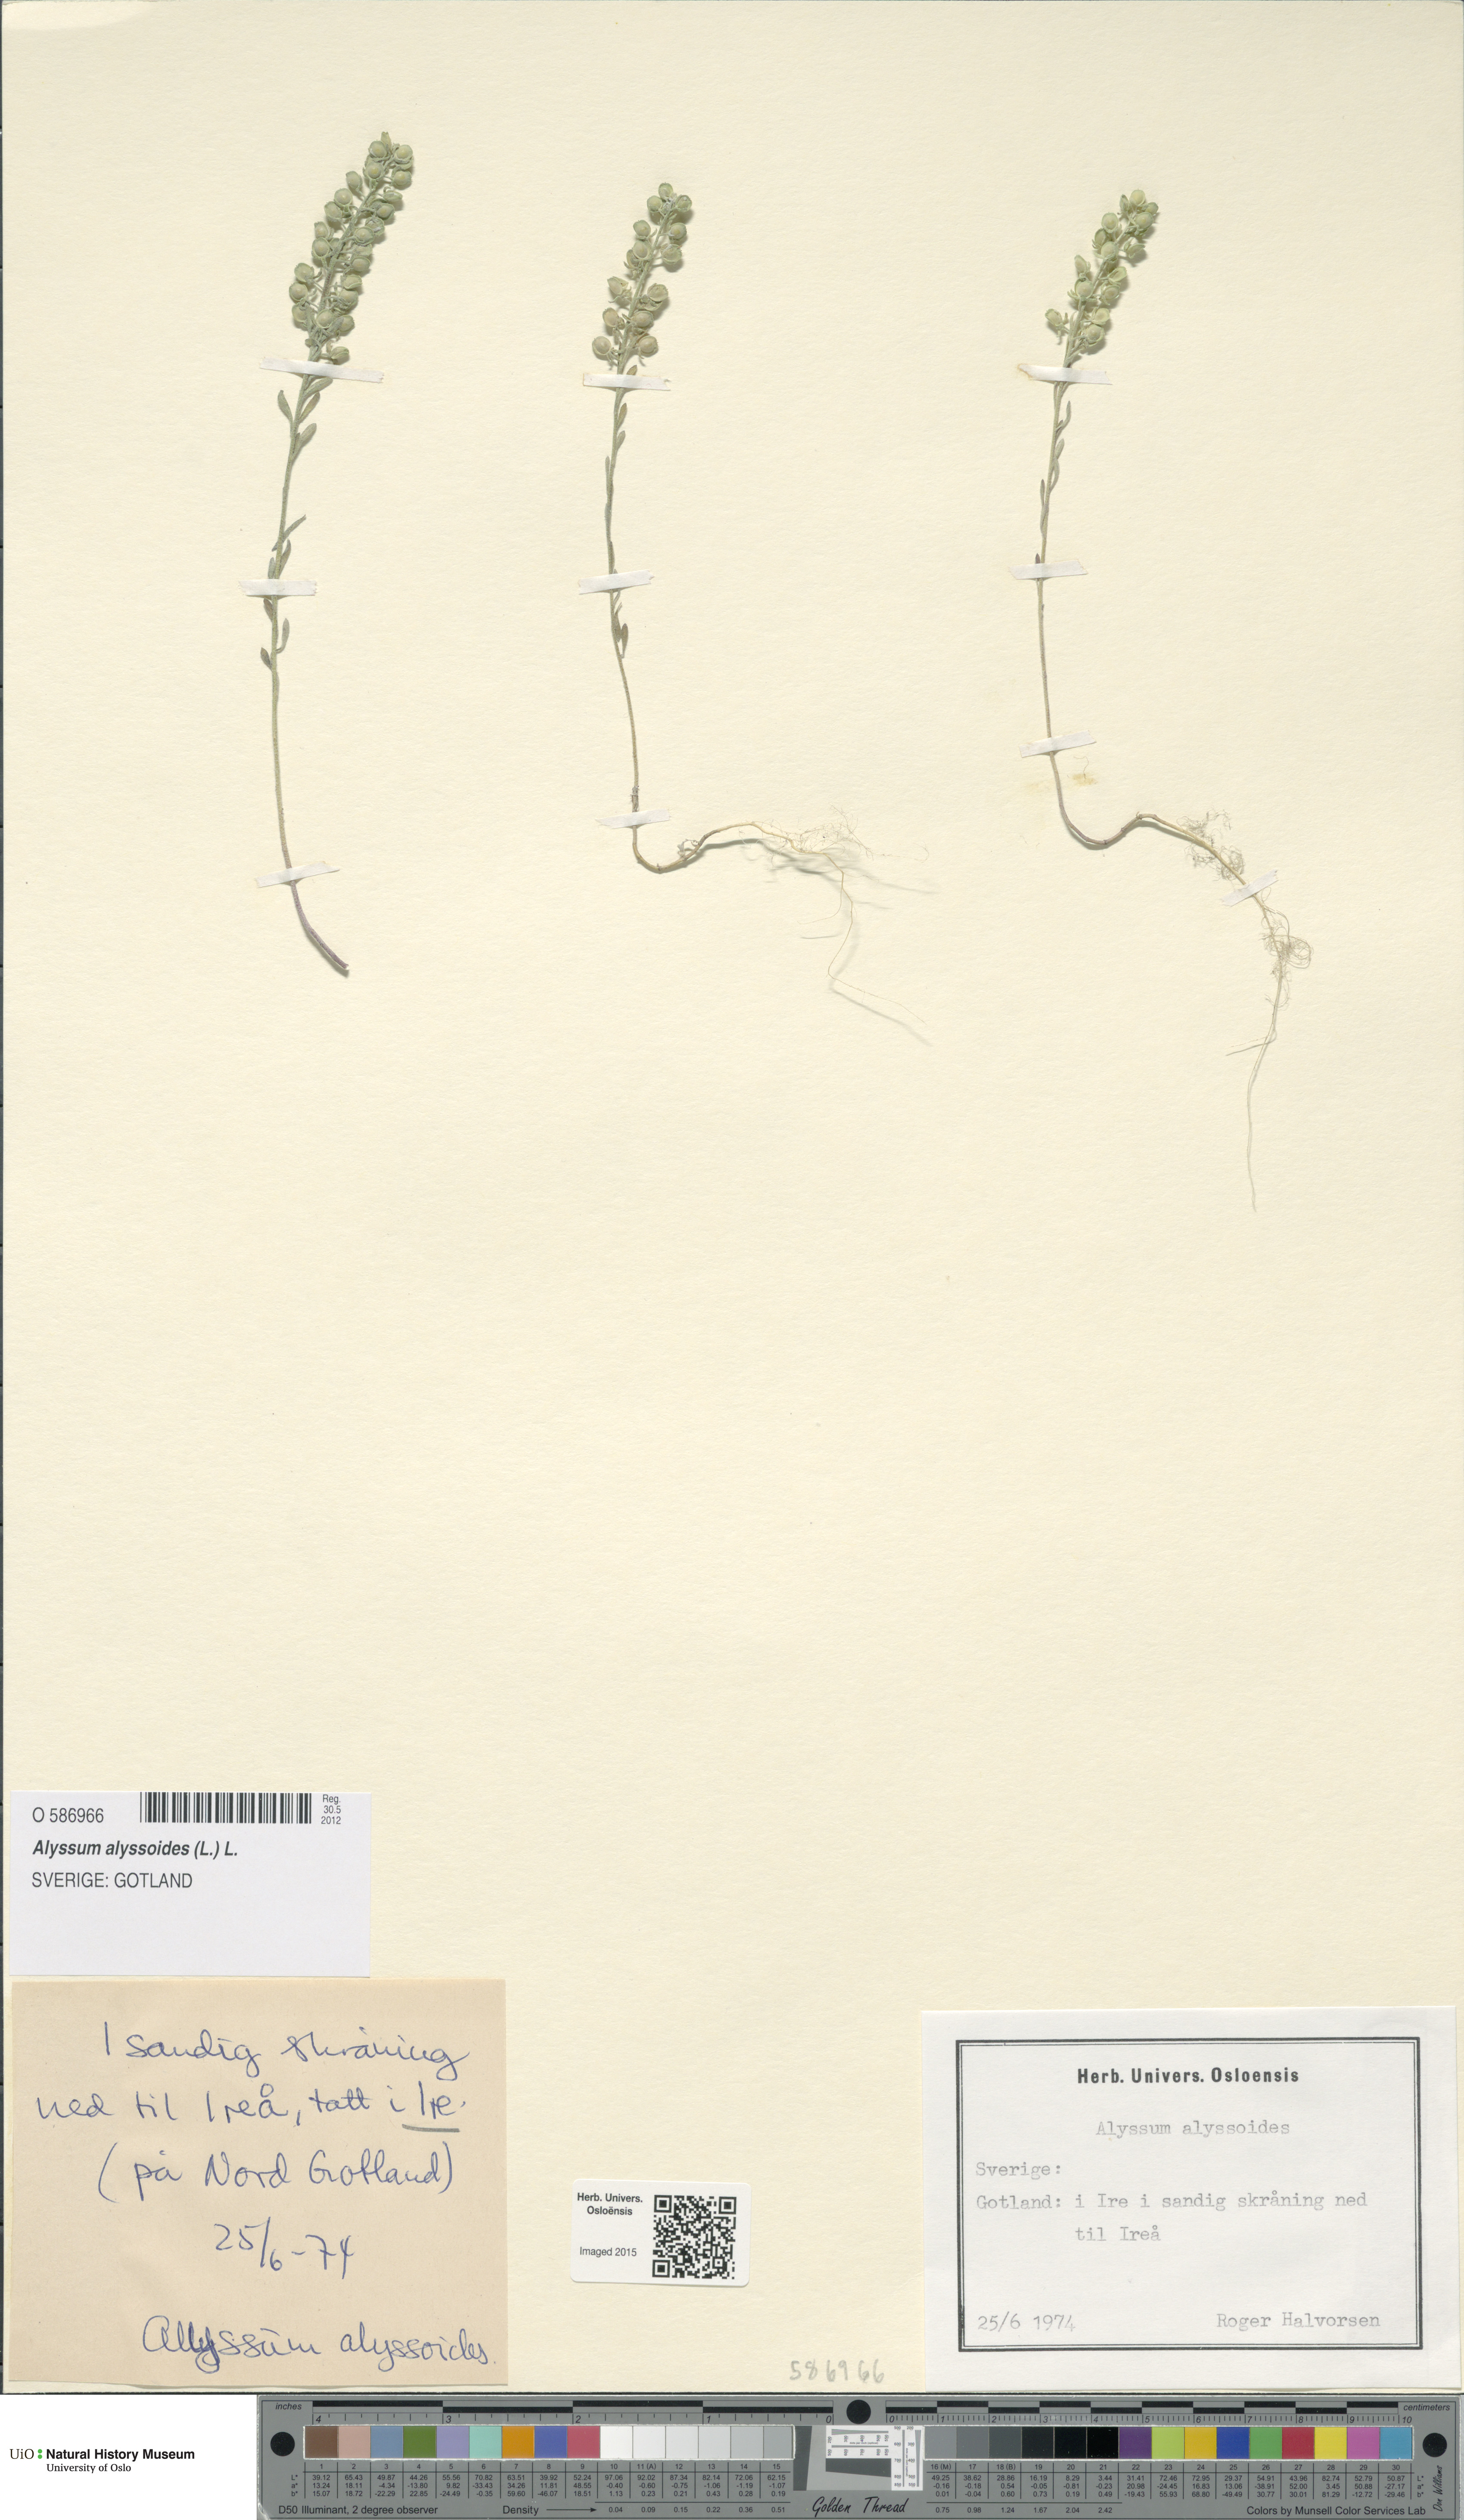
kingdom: Plantae
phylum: Tracheophyta
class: Magnoliopsida
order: Brassicales
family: Brassicaceae
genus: Alyssum
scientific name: Alyssum alyssoides
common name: Small alison
